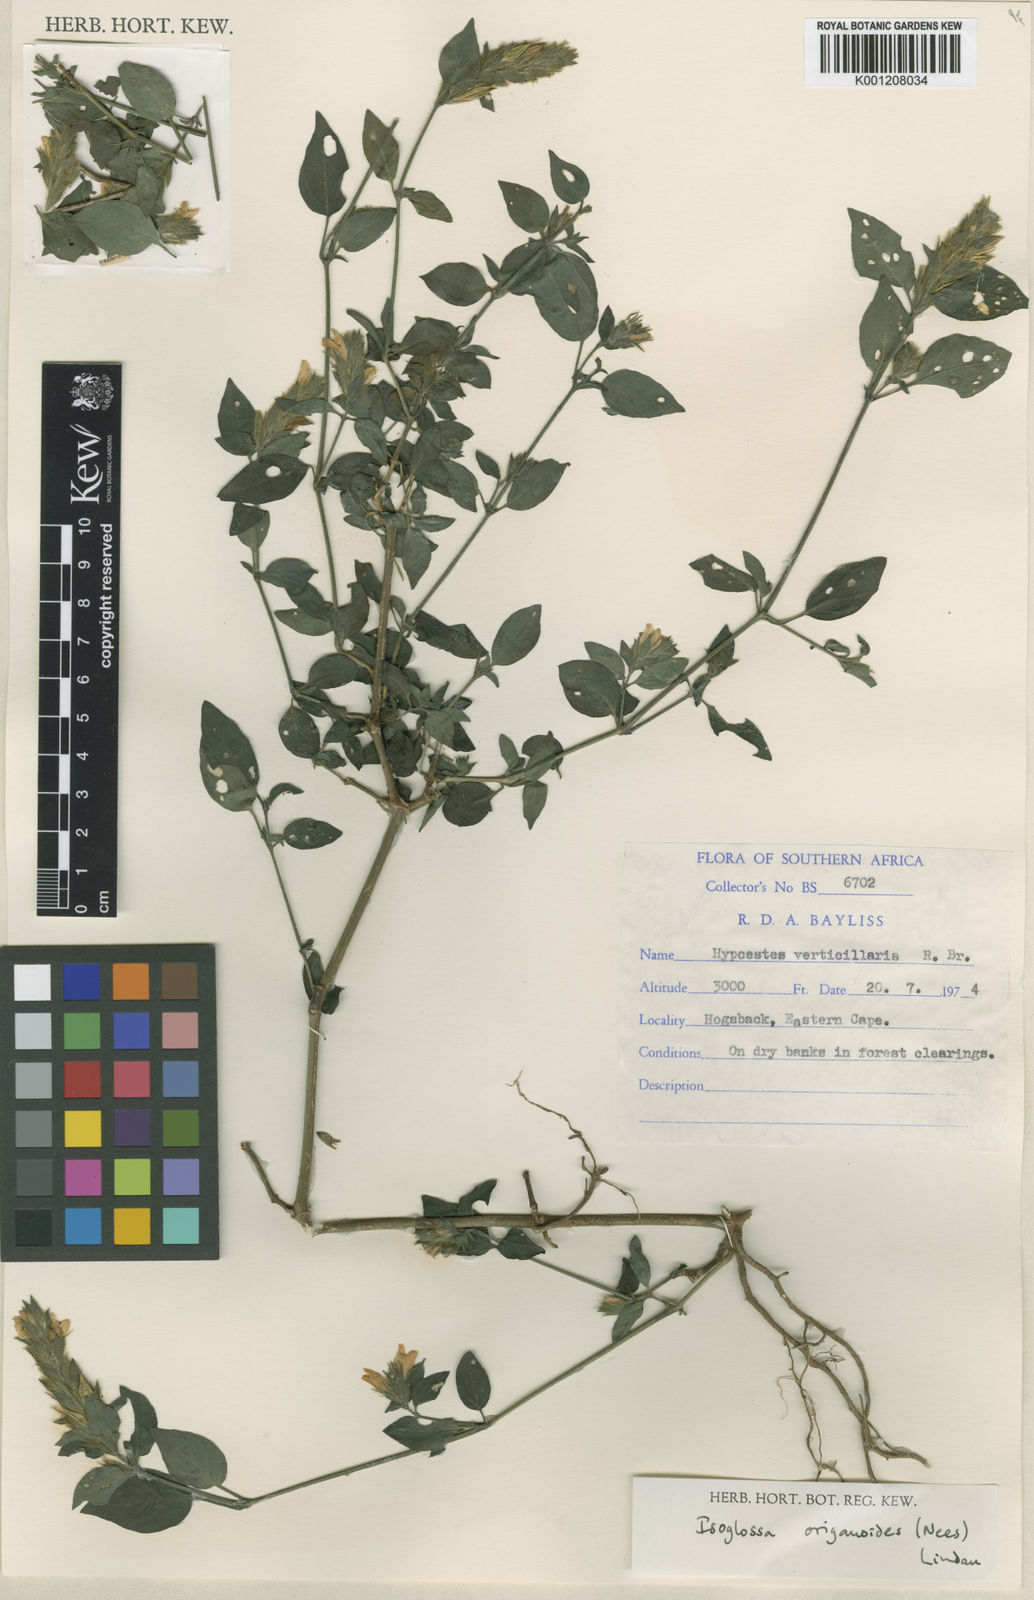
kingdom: Plantae
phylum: Tracheophyta
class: Magnoliopsida
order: Lamiales
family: Acanthaceae
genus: Isoglossa
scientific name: Isoglossa glandulosissima
